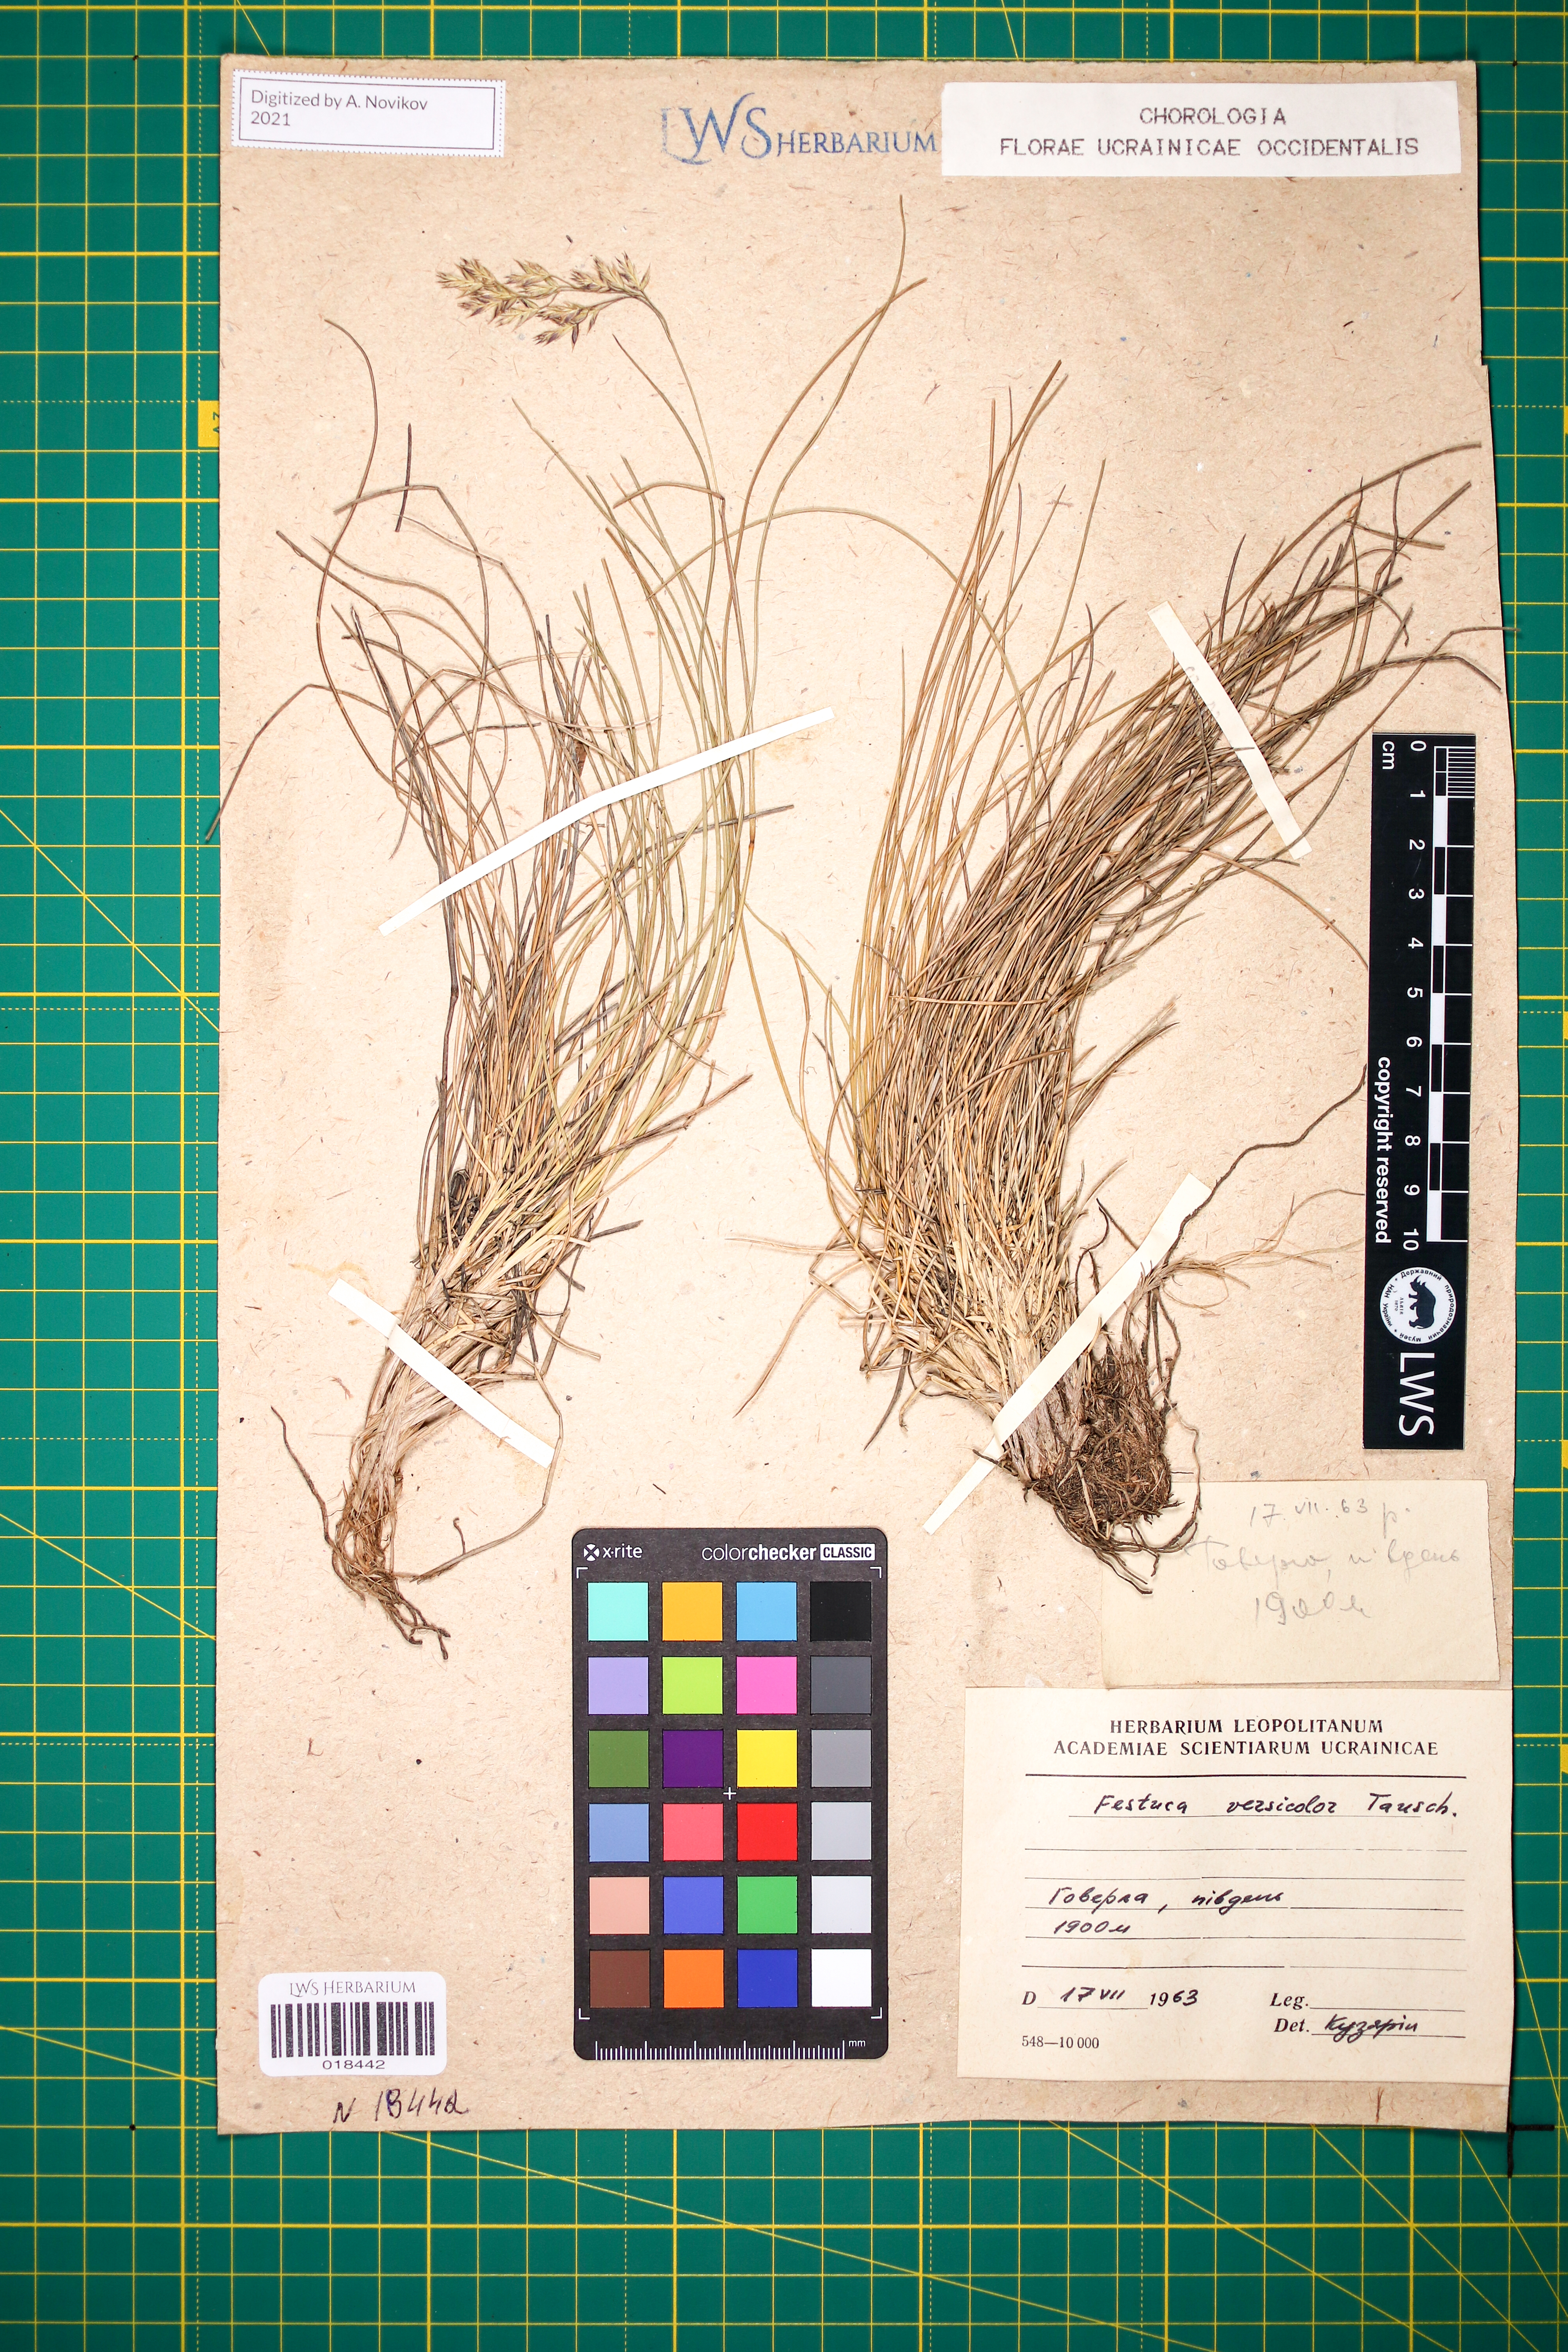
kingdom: Plantae
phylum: Tracheophyta
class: Liliopsida
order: Poales
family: Poaceae
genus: Festuca
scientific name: Festuca versicolor
